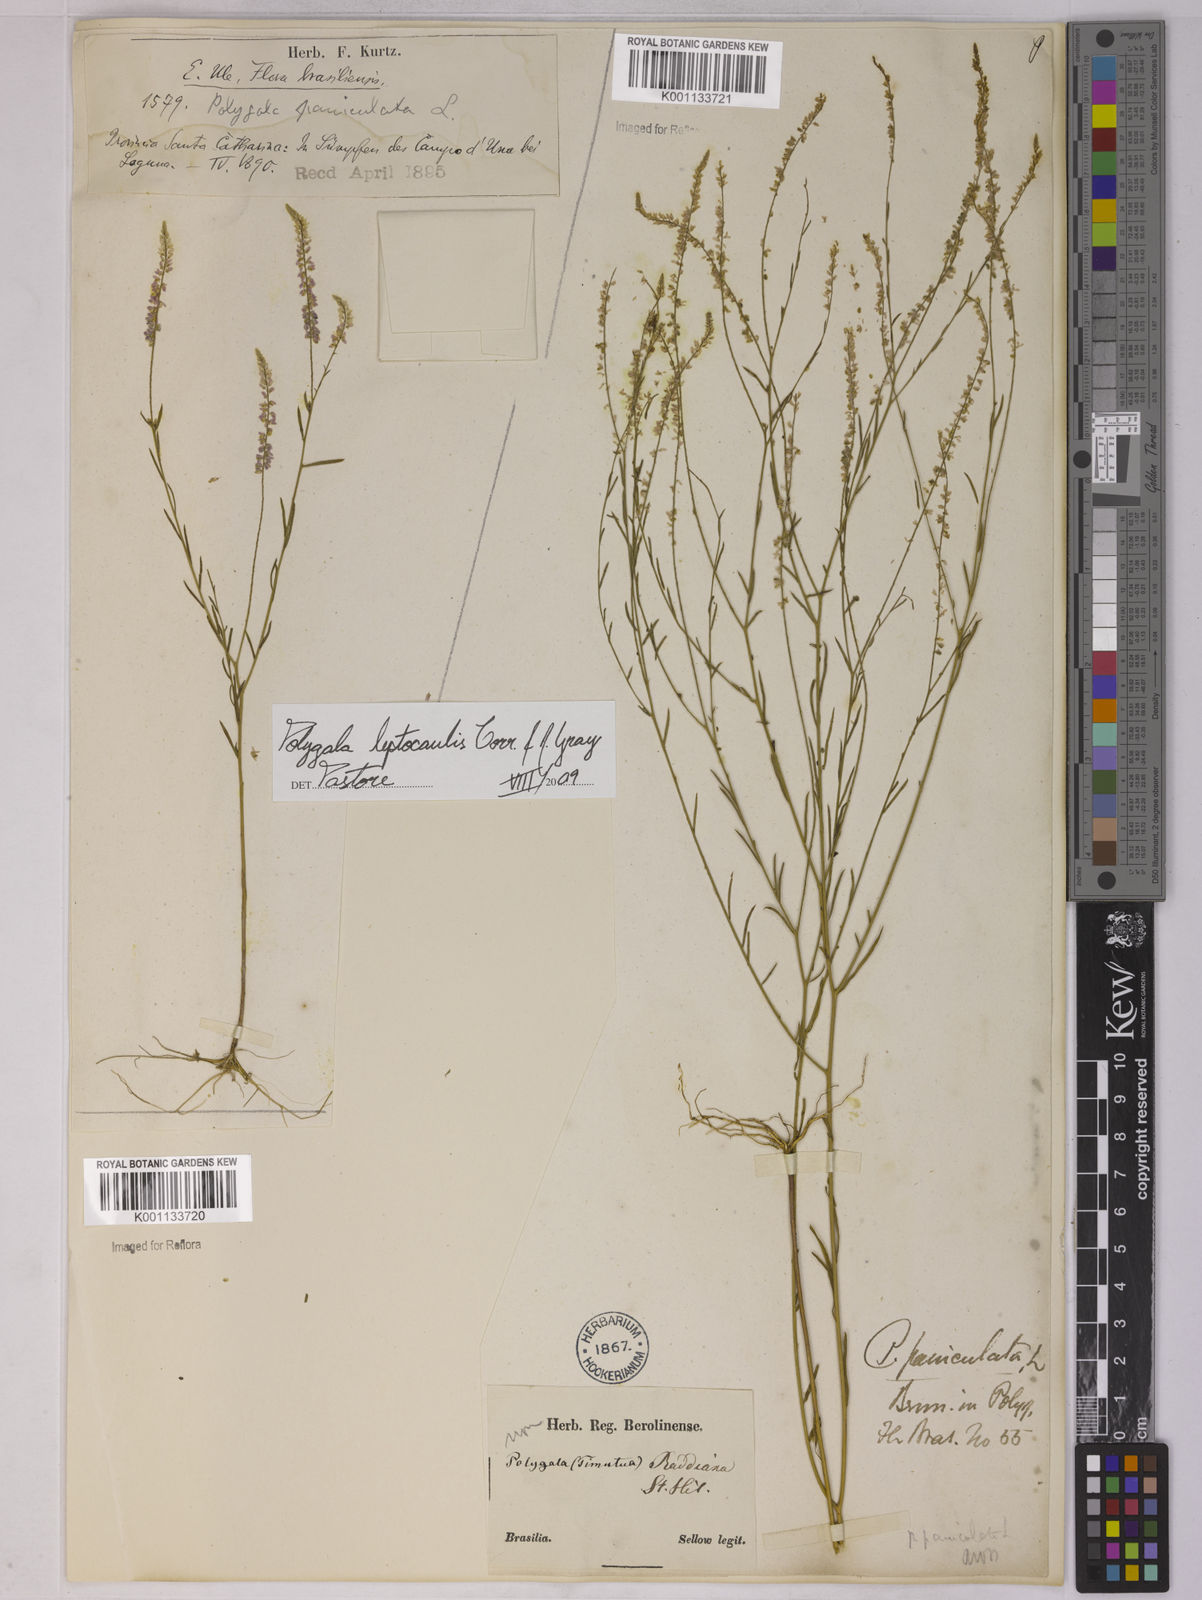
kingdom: Plantae
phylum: Tracheophyta
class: Magnoliopsida
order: Fabales
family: Polygalaceae
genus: Polygala
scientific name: Polygala tenella
